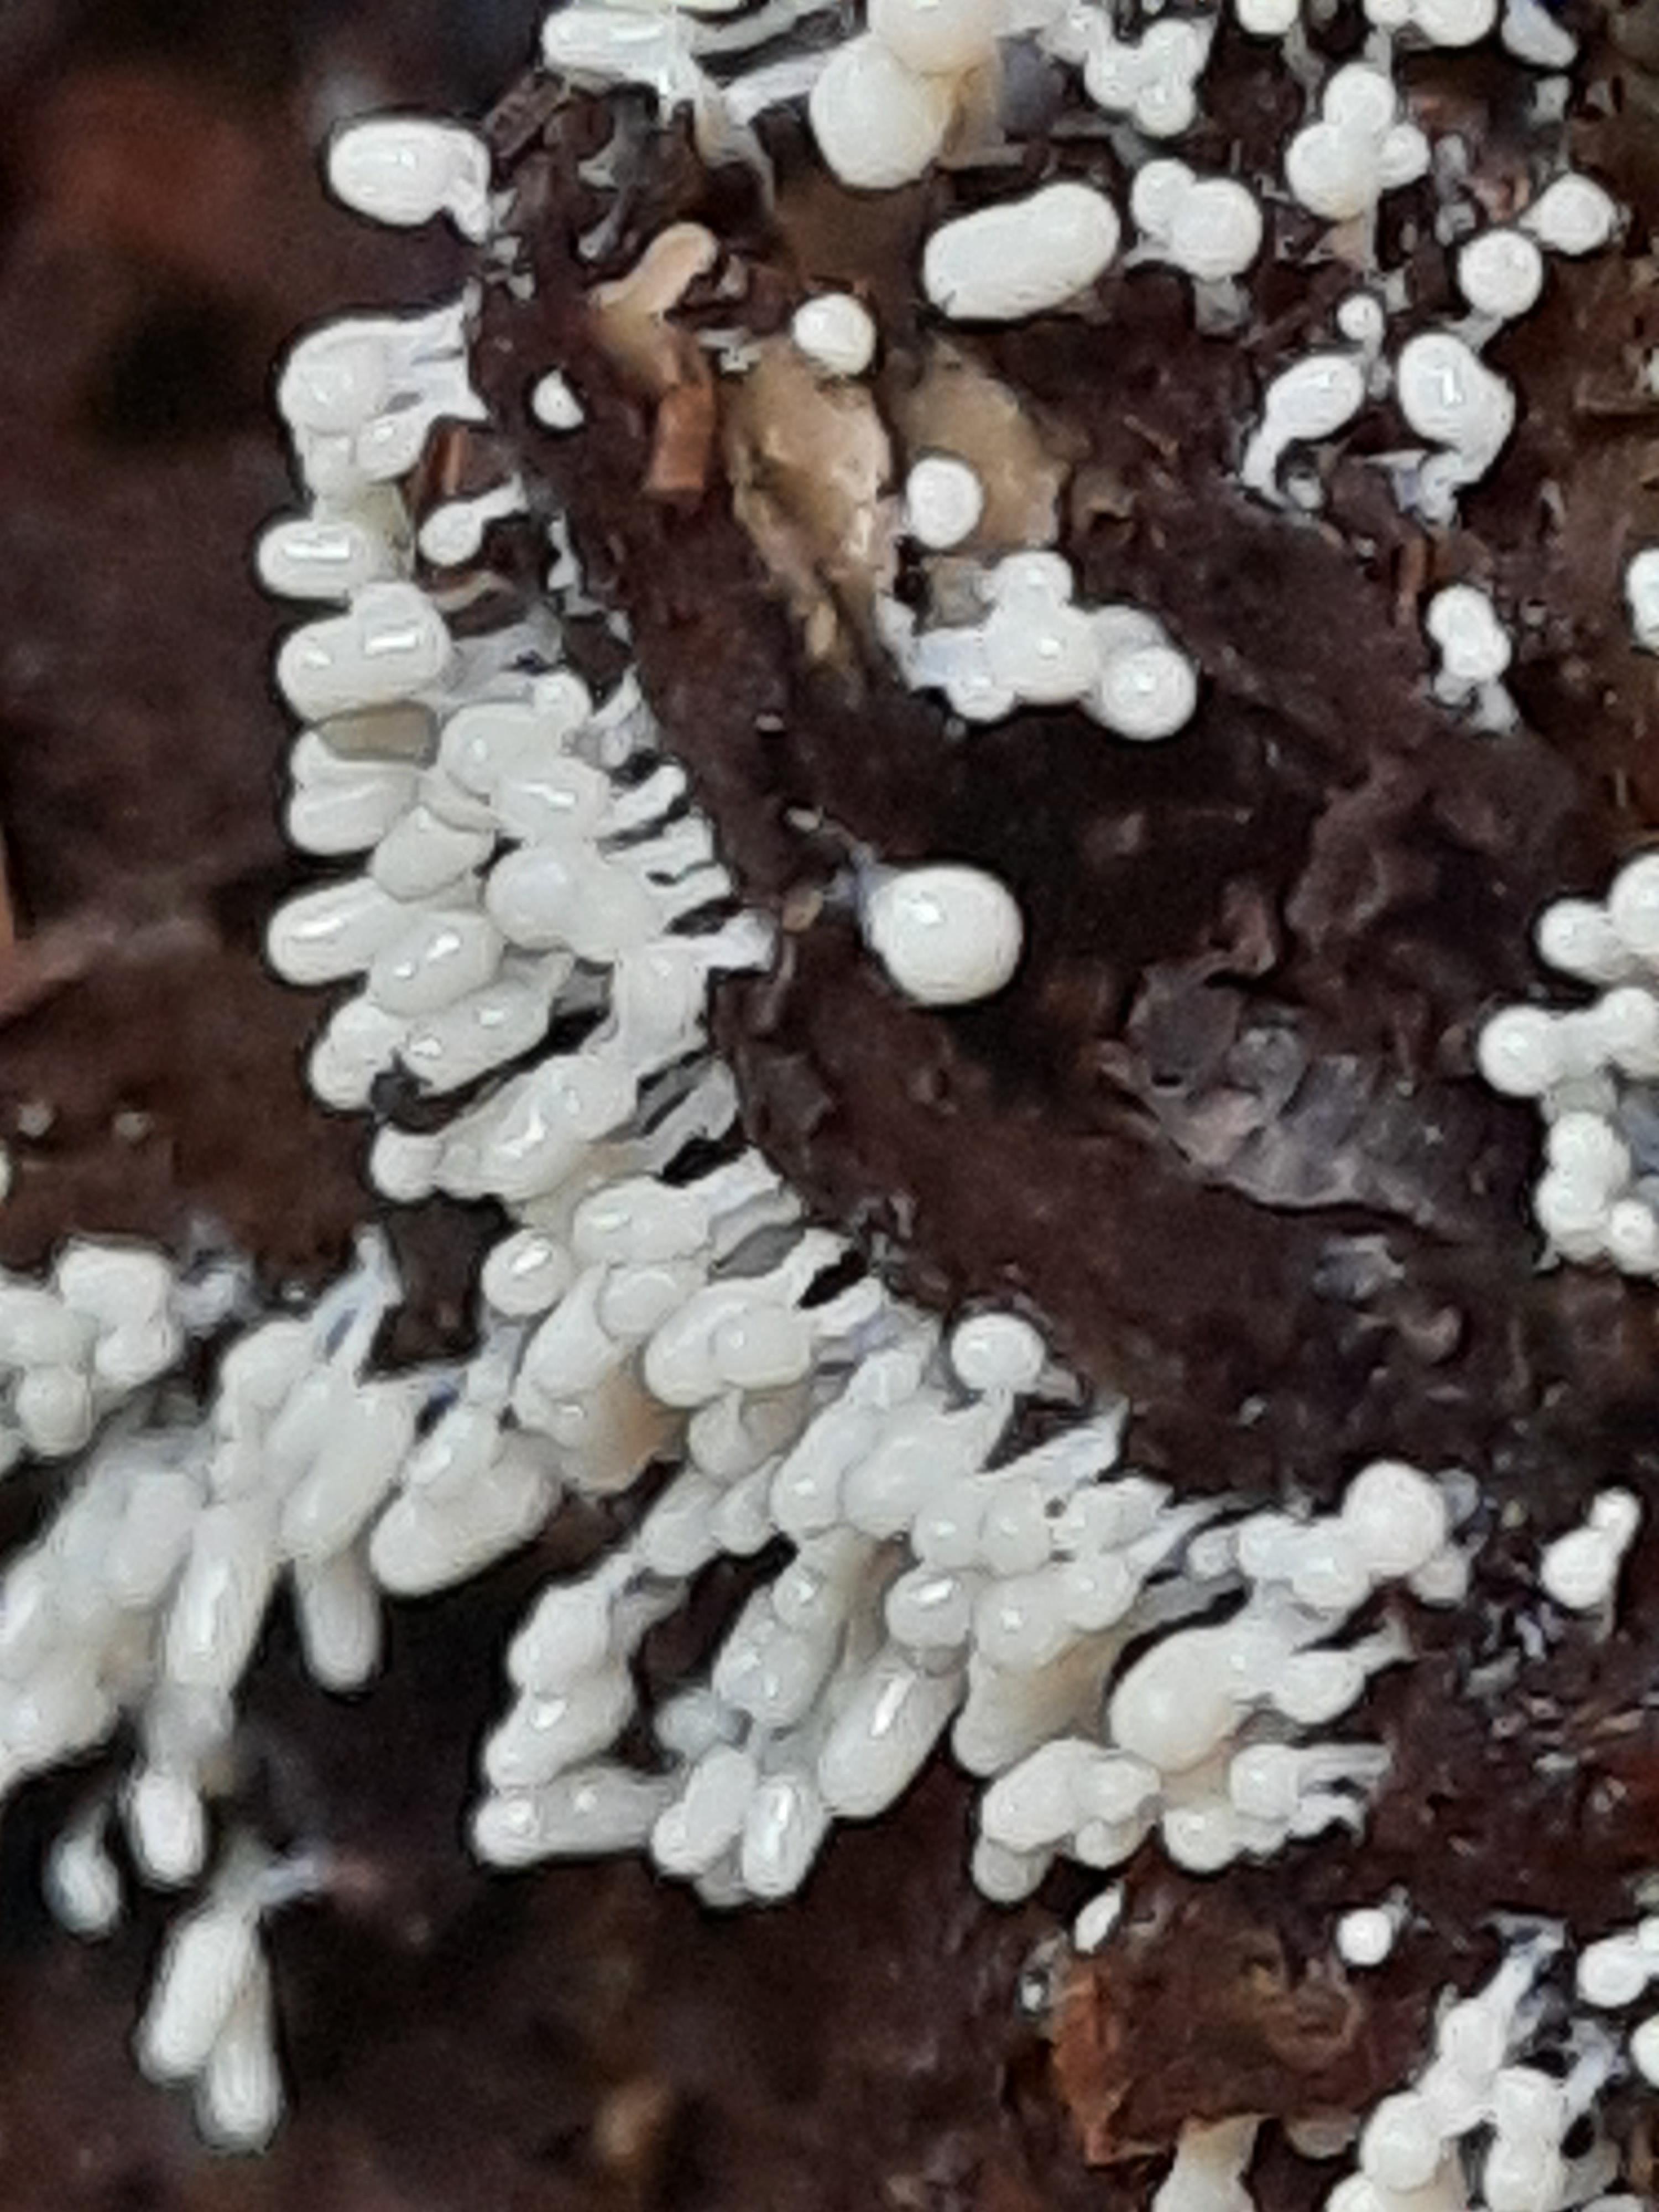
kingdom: Protozoa
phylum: Amoebozoa
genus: Arcyria
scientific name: Arcyria
